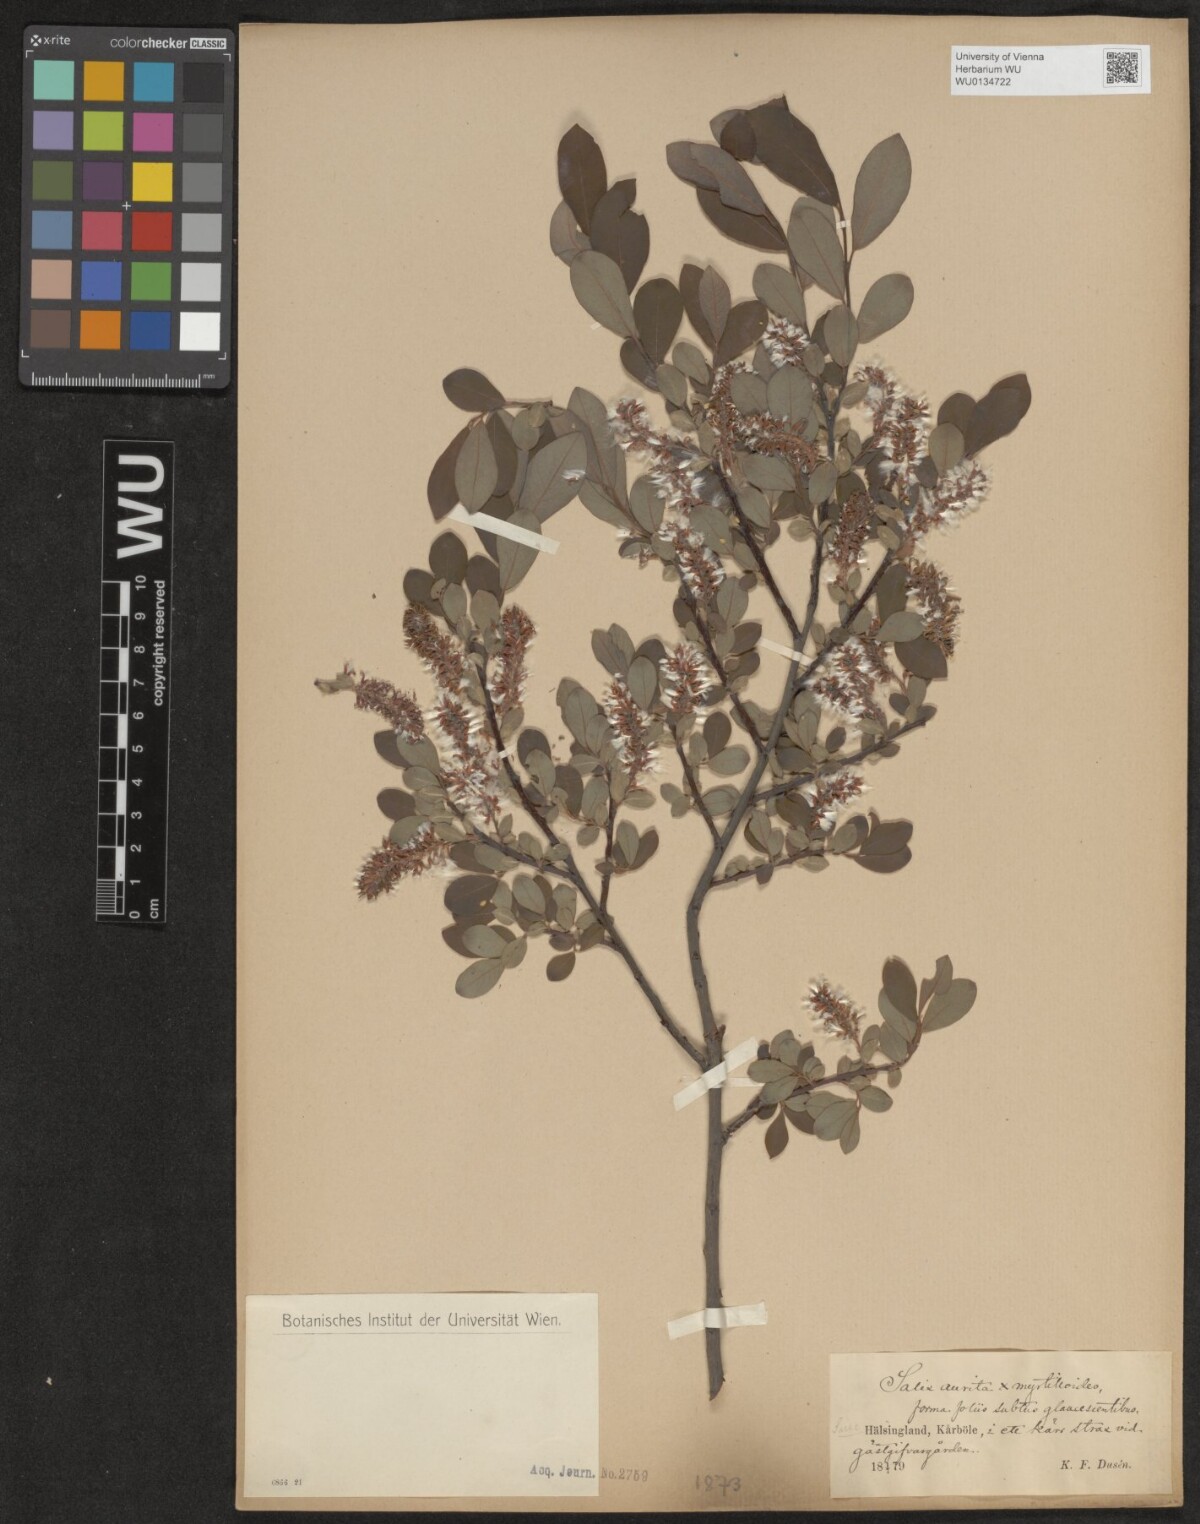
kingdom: Plantae
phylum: Tracheophyta
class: Magnoliopsida
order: Malpighiales
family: Salicaceae
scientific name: Salicaceae
